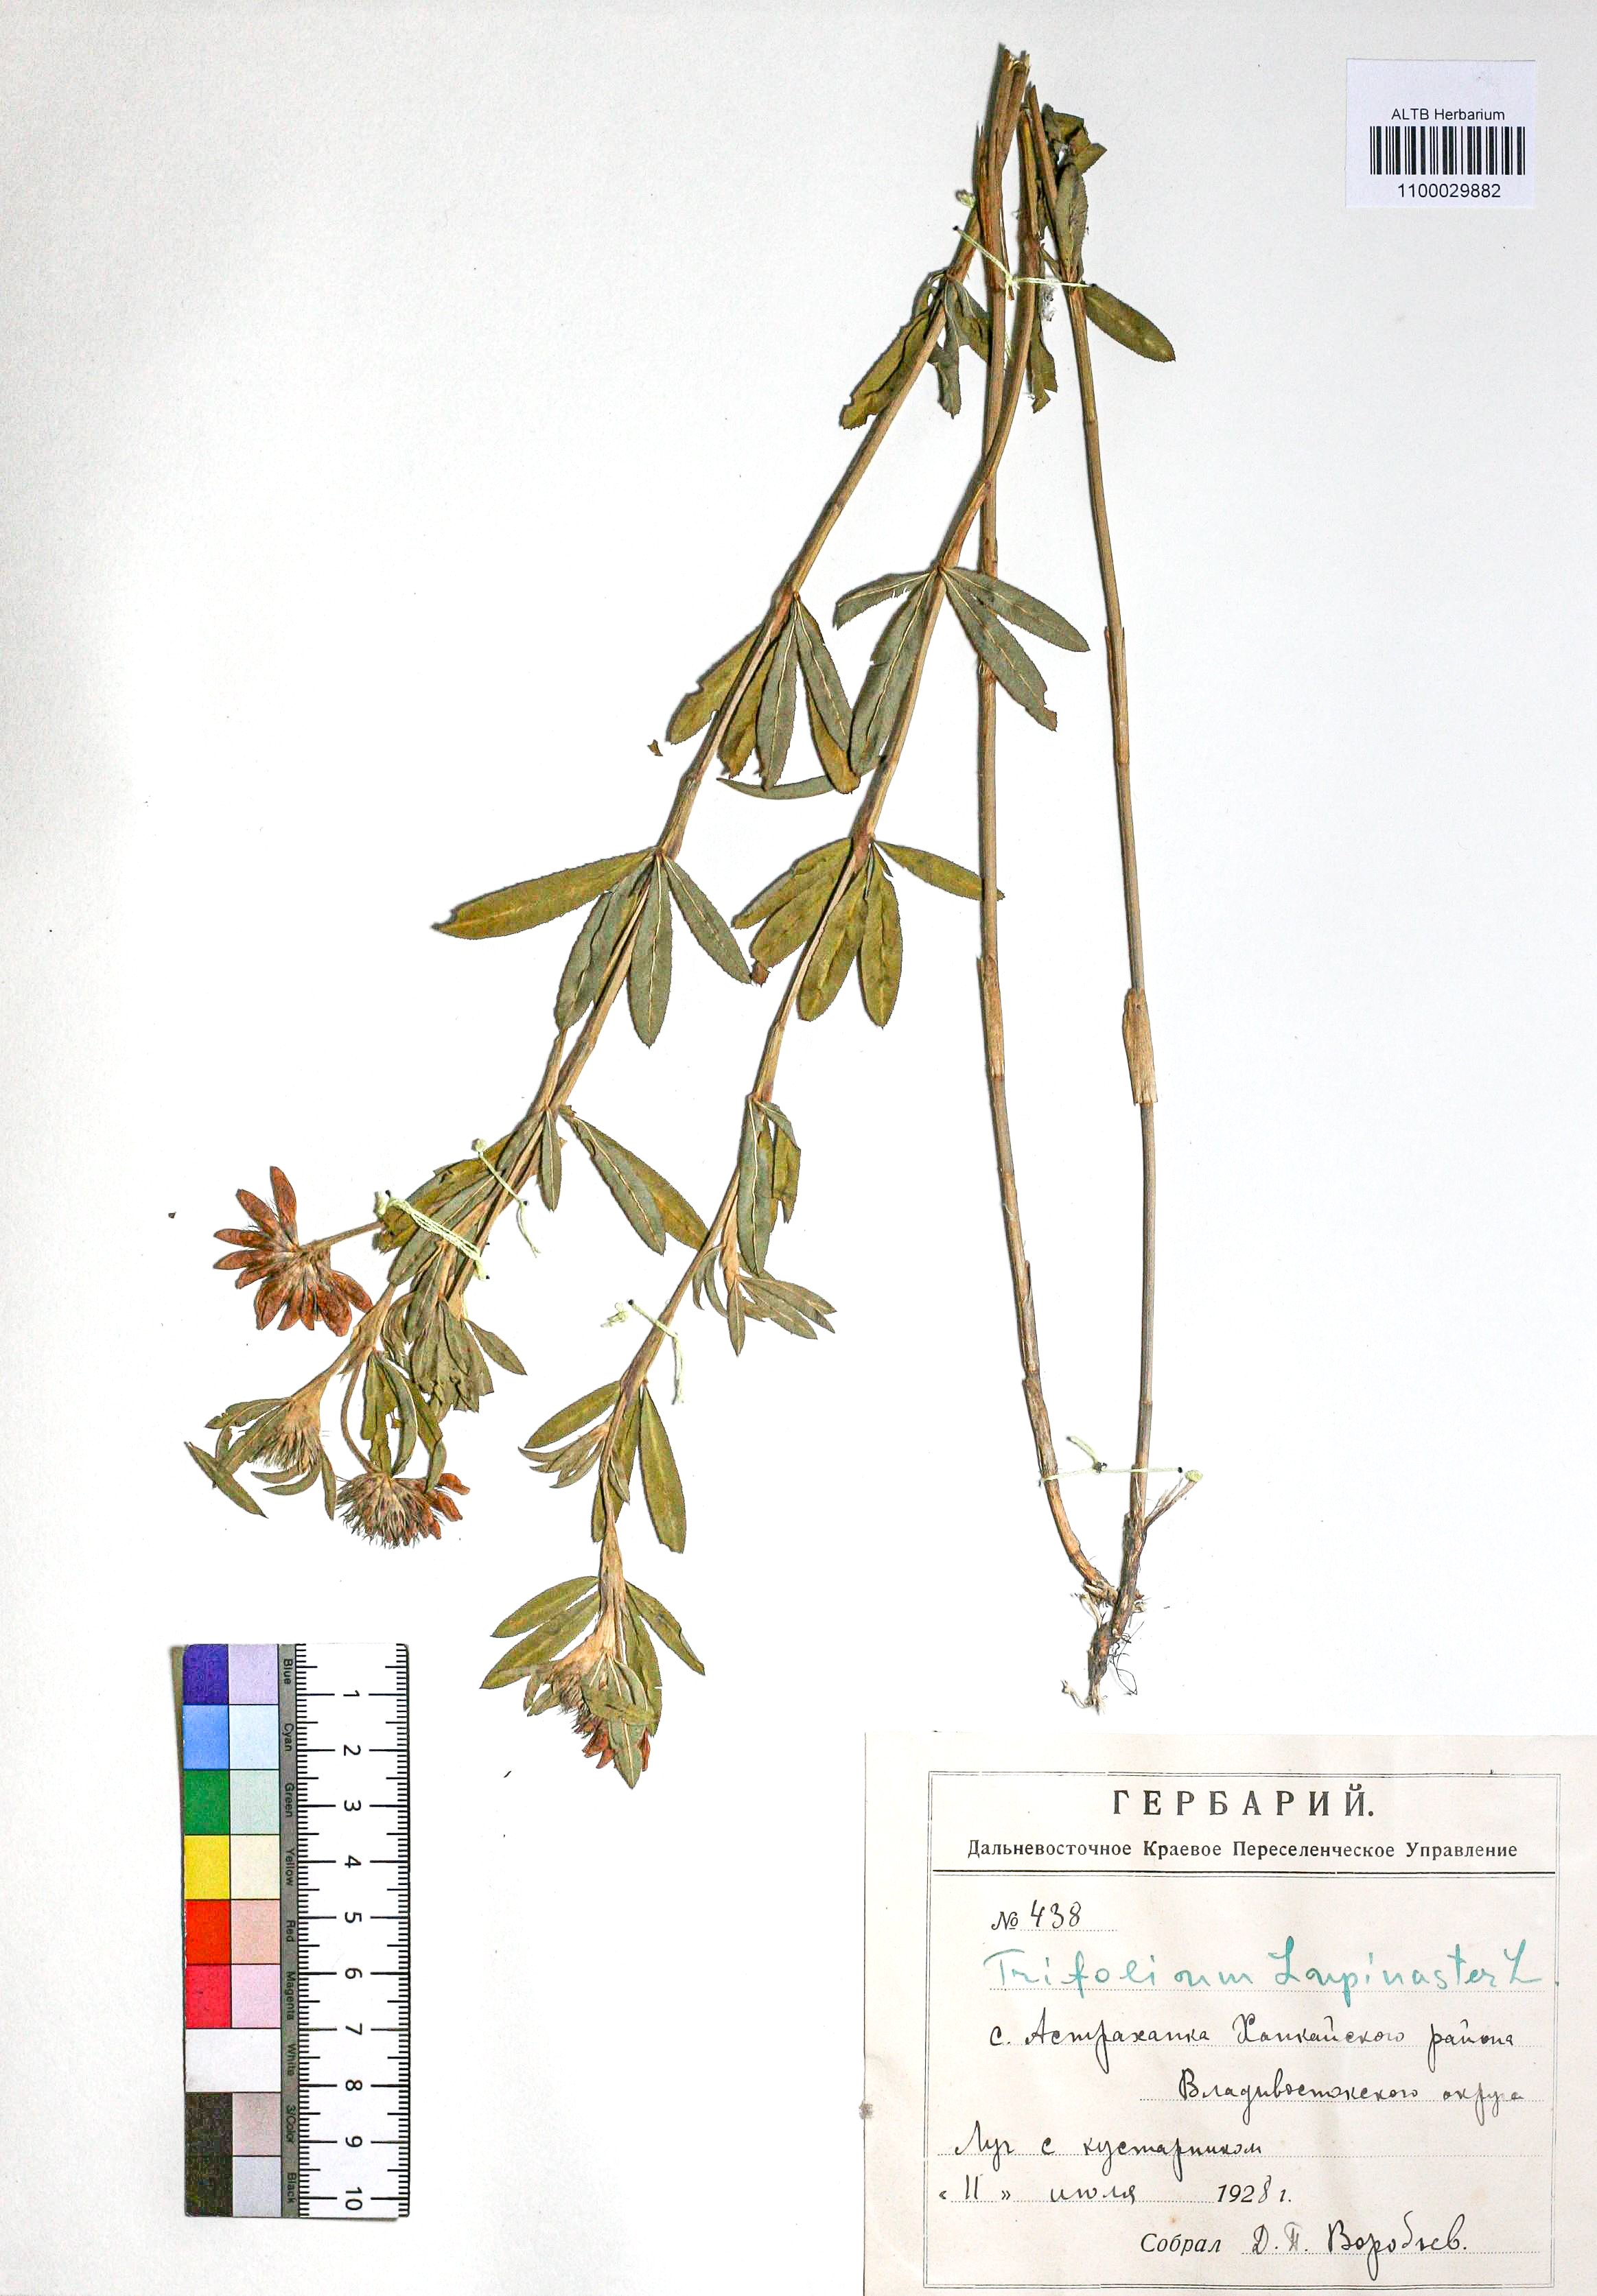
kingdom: Plantae
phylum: Tracheophyta
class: Magnoliopsida
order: Fabales
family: Fabaceae
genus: Trifolium
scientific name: Trifolium lupinaster
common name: Lupine clover
